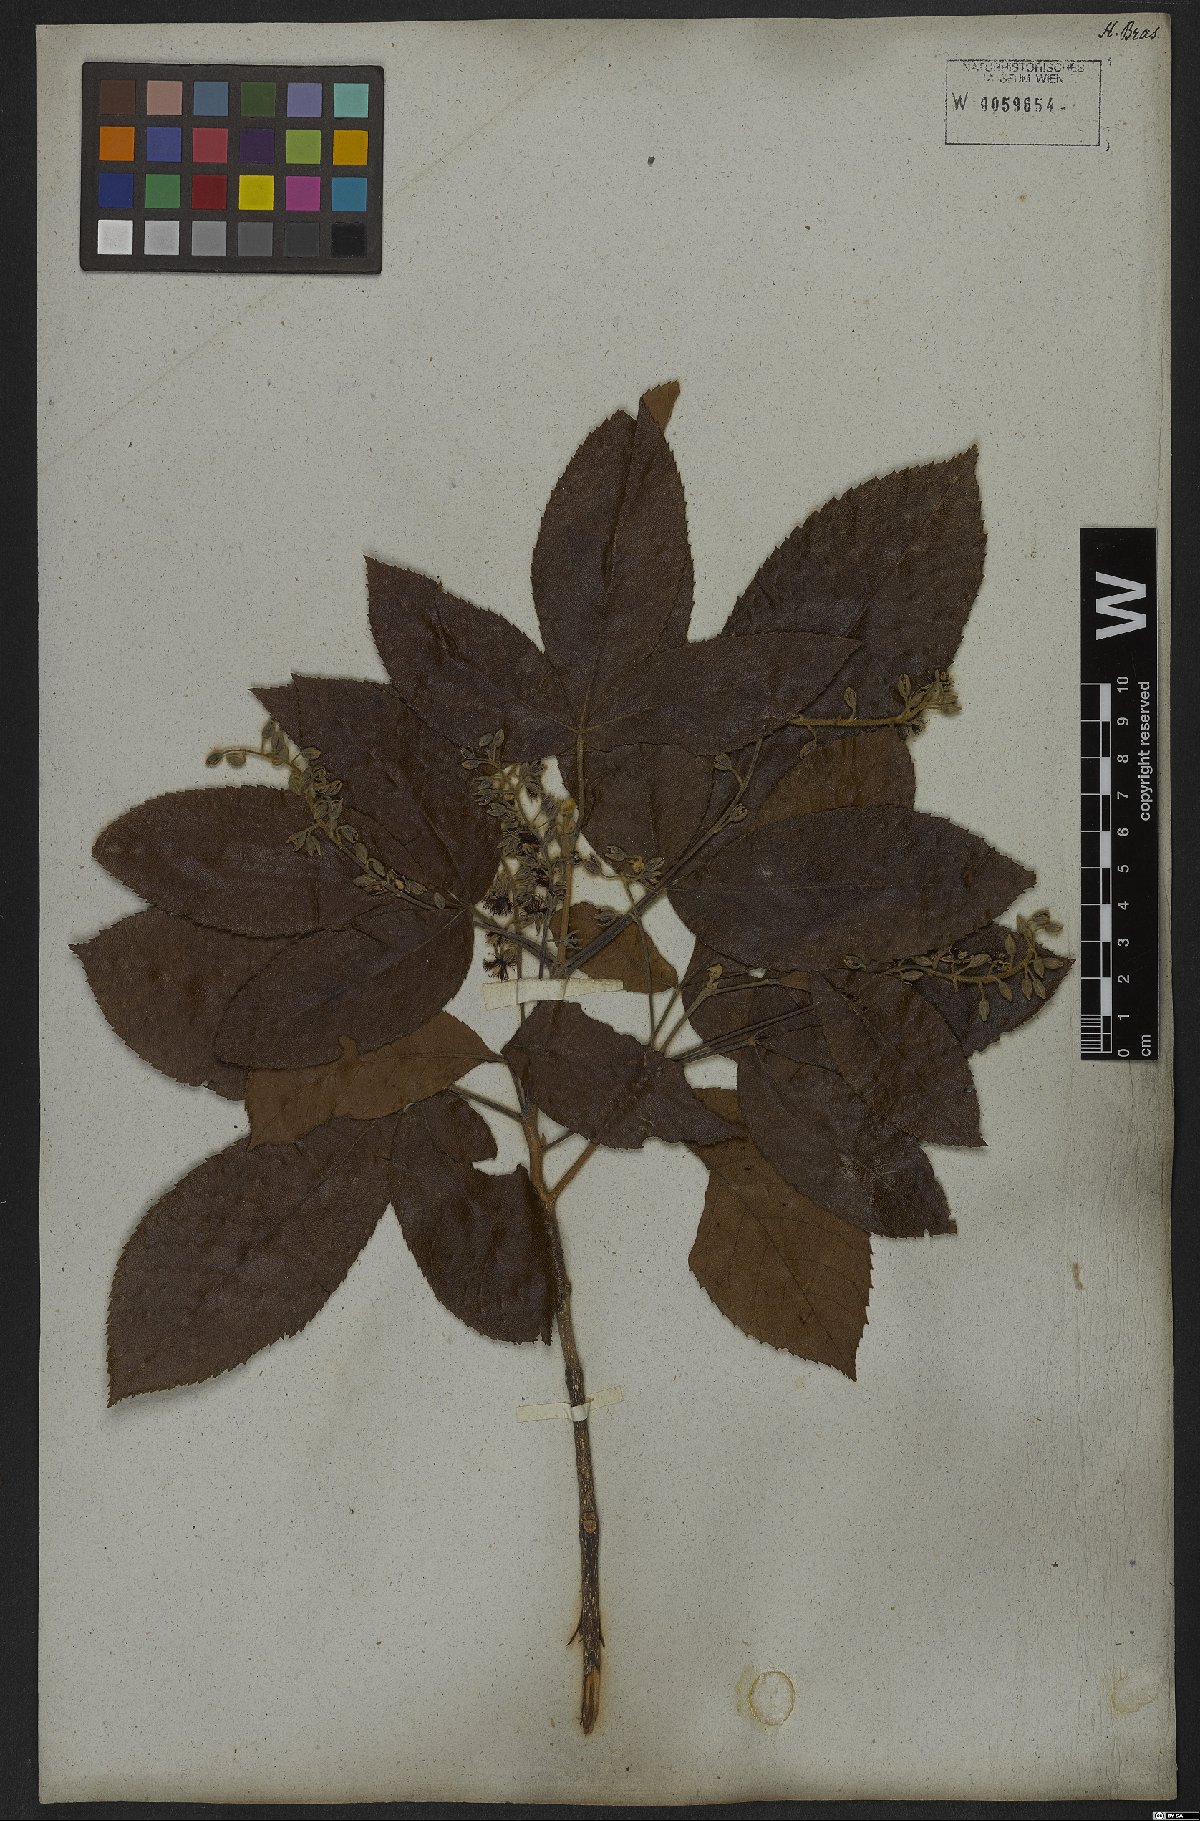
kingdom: Plantae
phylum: Tracheophyta
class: Magnoliopsida
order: Oxalidales
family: Cunoniaceae
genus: Lamanonia
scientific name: Lamanonia ternata
